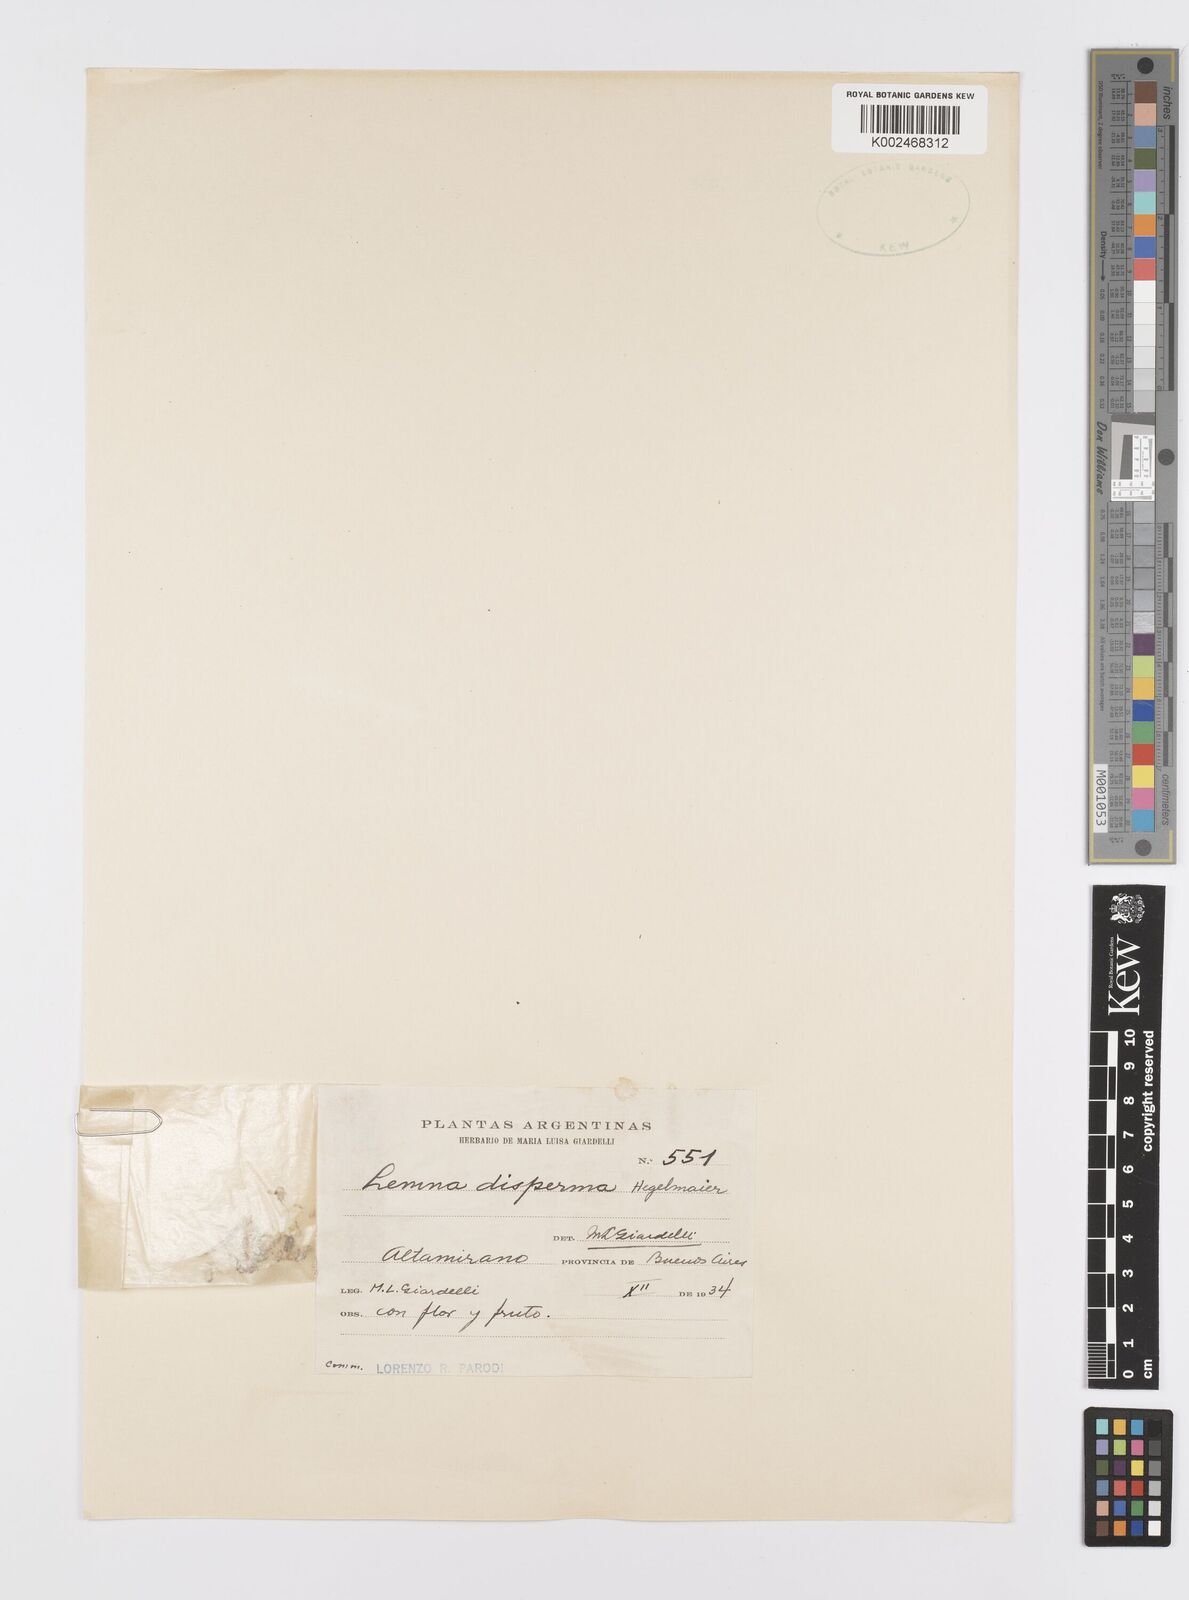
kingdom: Plantae
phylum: Tracheophyta
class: Liliopsida
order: Alismatales
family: Araceae
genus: Lemna
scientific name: Lemna disperma
